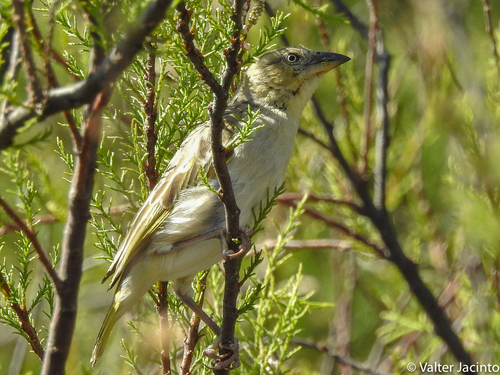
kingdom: Animalia
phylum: Chordata
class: Aves
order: Passeriformes
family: Ploceidae
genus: Ploceus
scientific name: Ploceus melanocephalus
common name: Black-headed weaver
